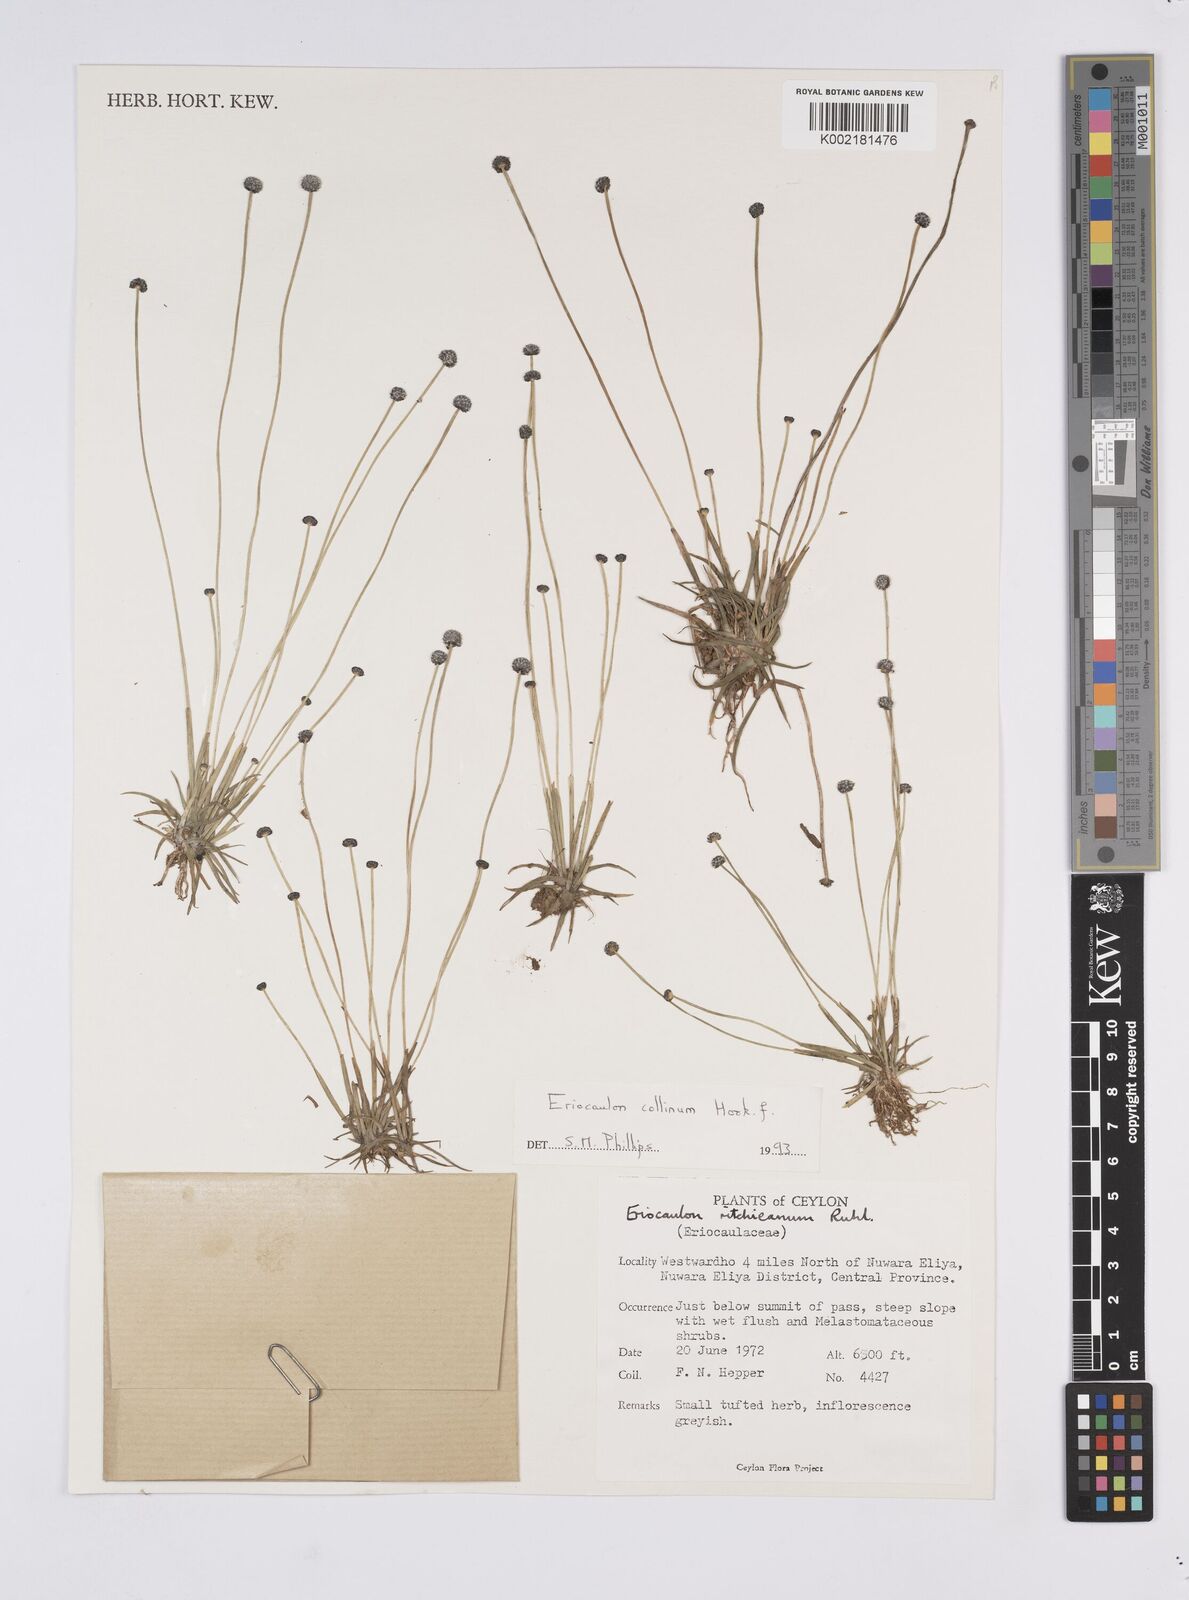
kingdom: Plantae
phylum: Tracheophyta
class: Liliopsida
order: Poales
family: Eriocaulaceae
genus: Eriocaulon
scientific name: Eriocaulon odoratum
